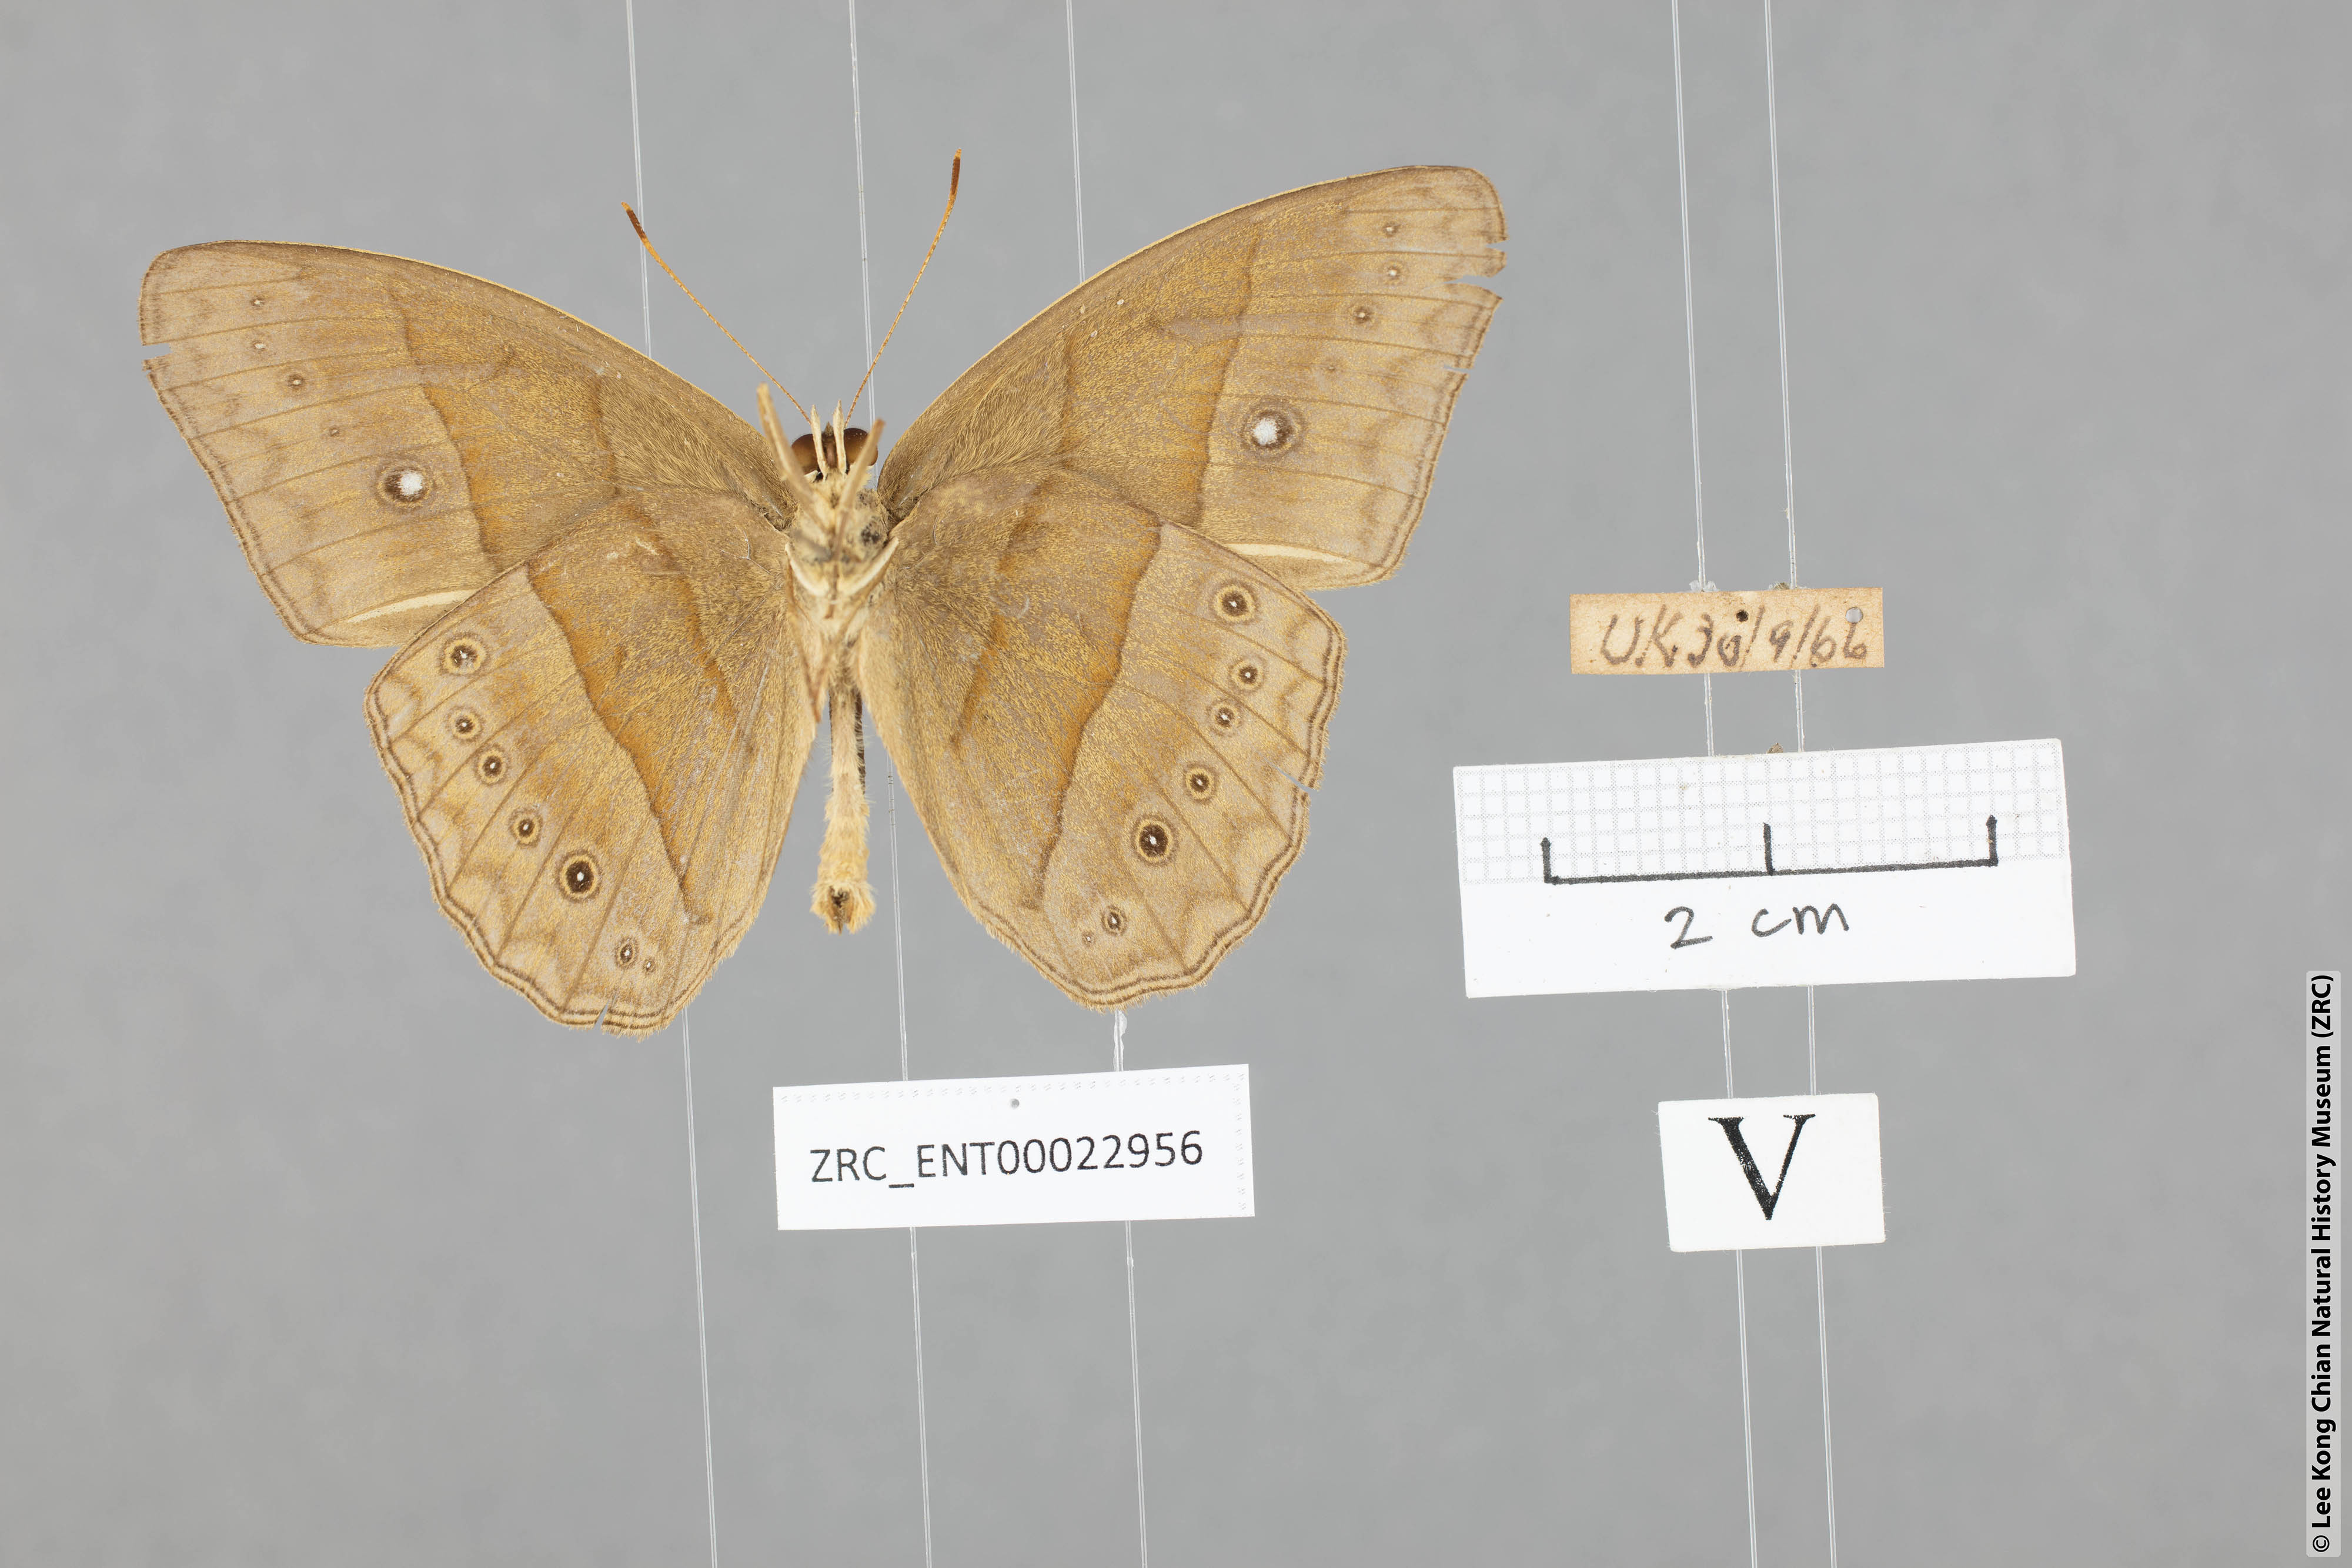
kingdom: Animalia
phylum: Arthropoda
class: Insecta
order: Lepidoptera
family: Nymphalidae
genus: Mycalesis
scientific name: Mycalesis mnasicles
